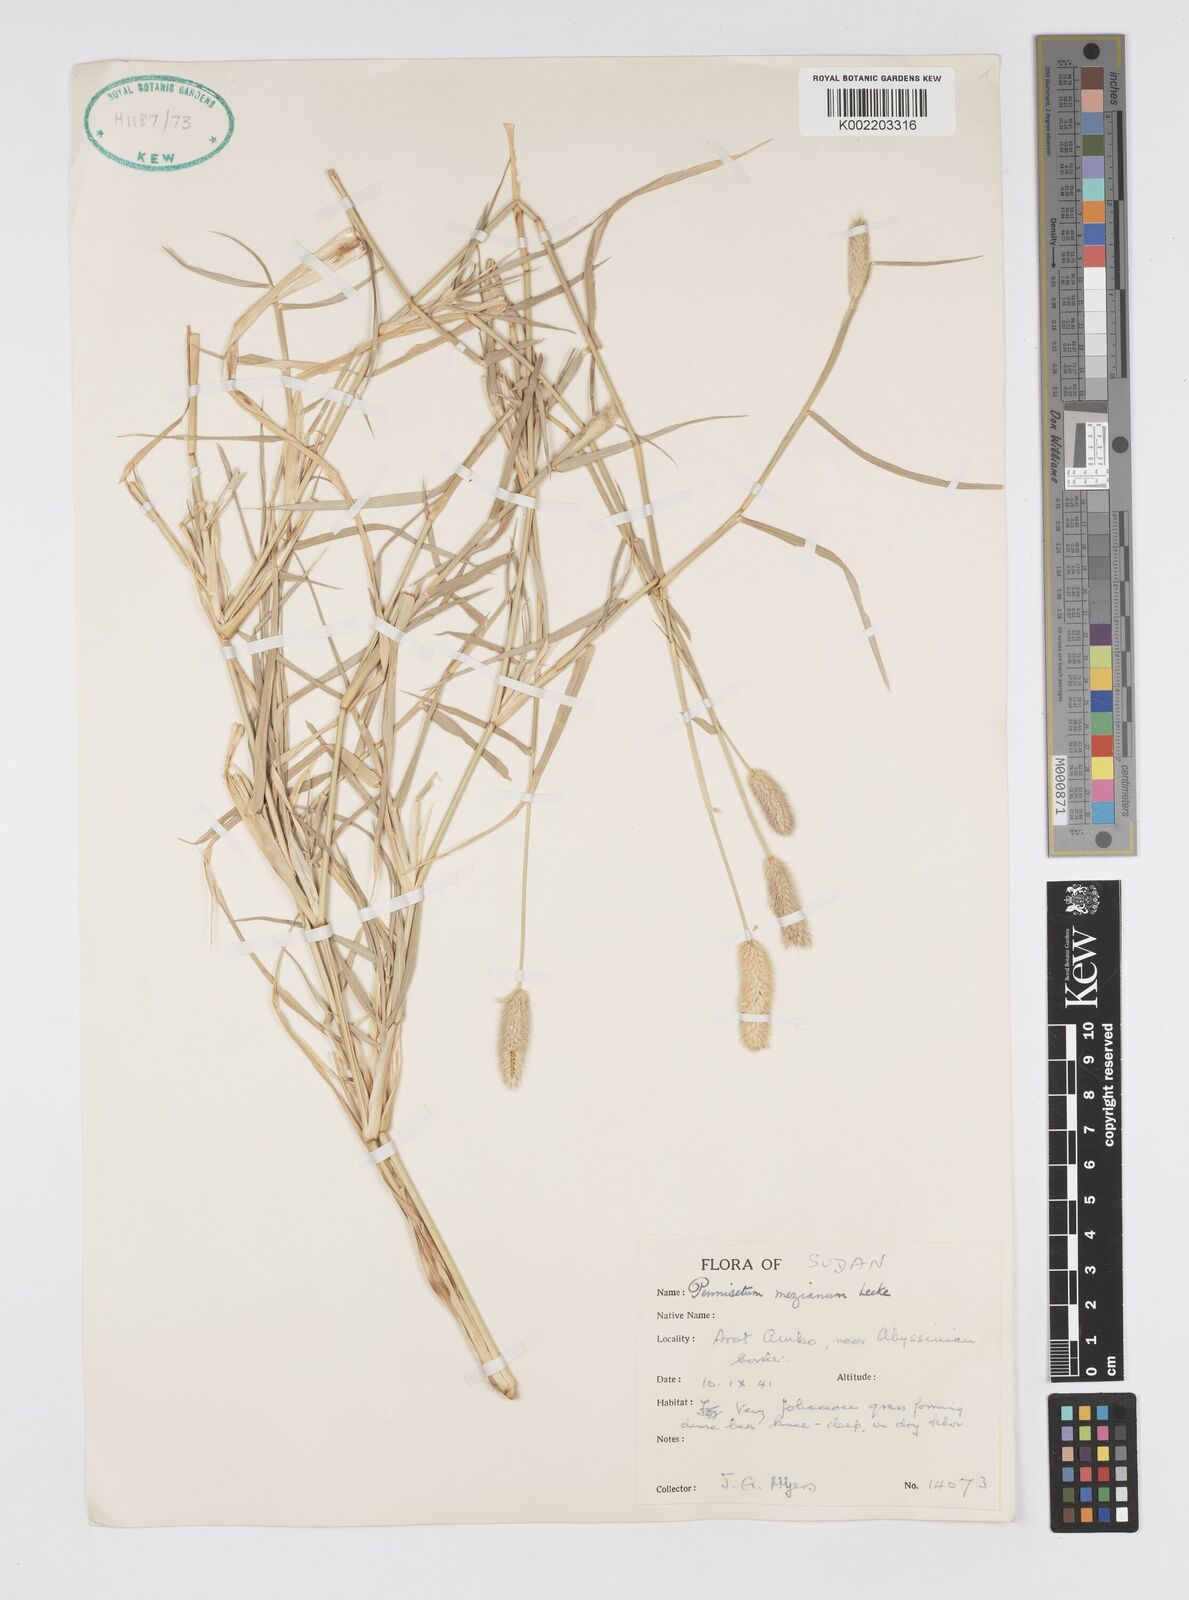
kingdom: Plantae
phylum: Tracheophyta
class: Liliopsida
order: Poales
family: Poaceae
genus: Cenchrus
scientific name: Cenchrus mezianus
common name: Bamboo grass
